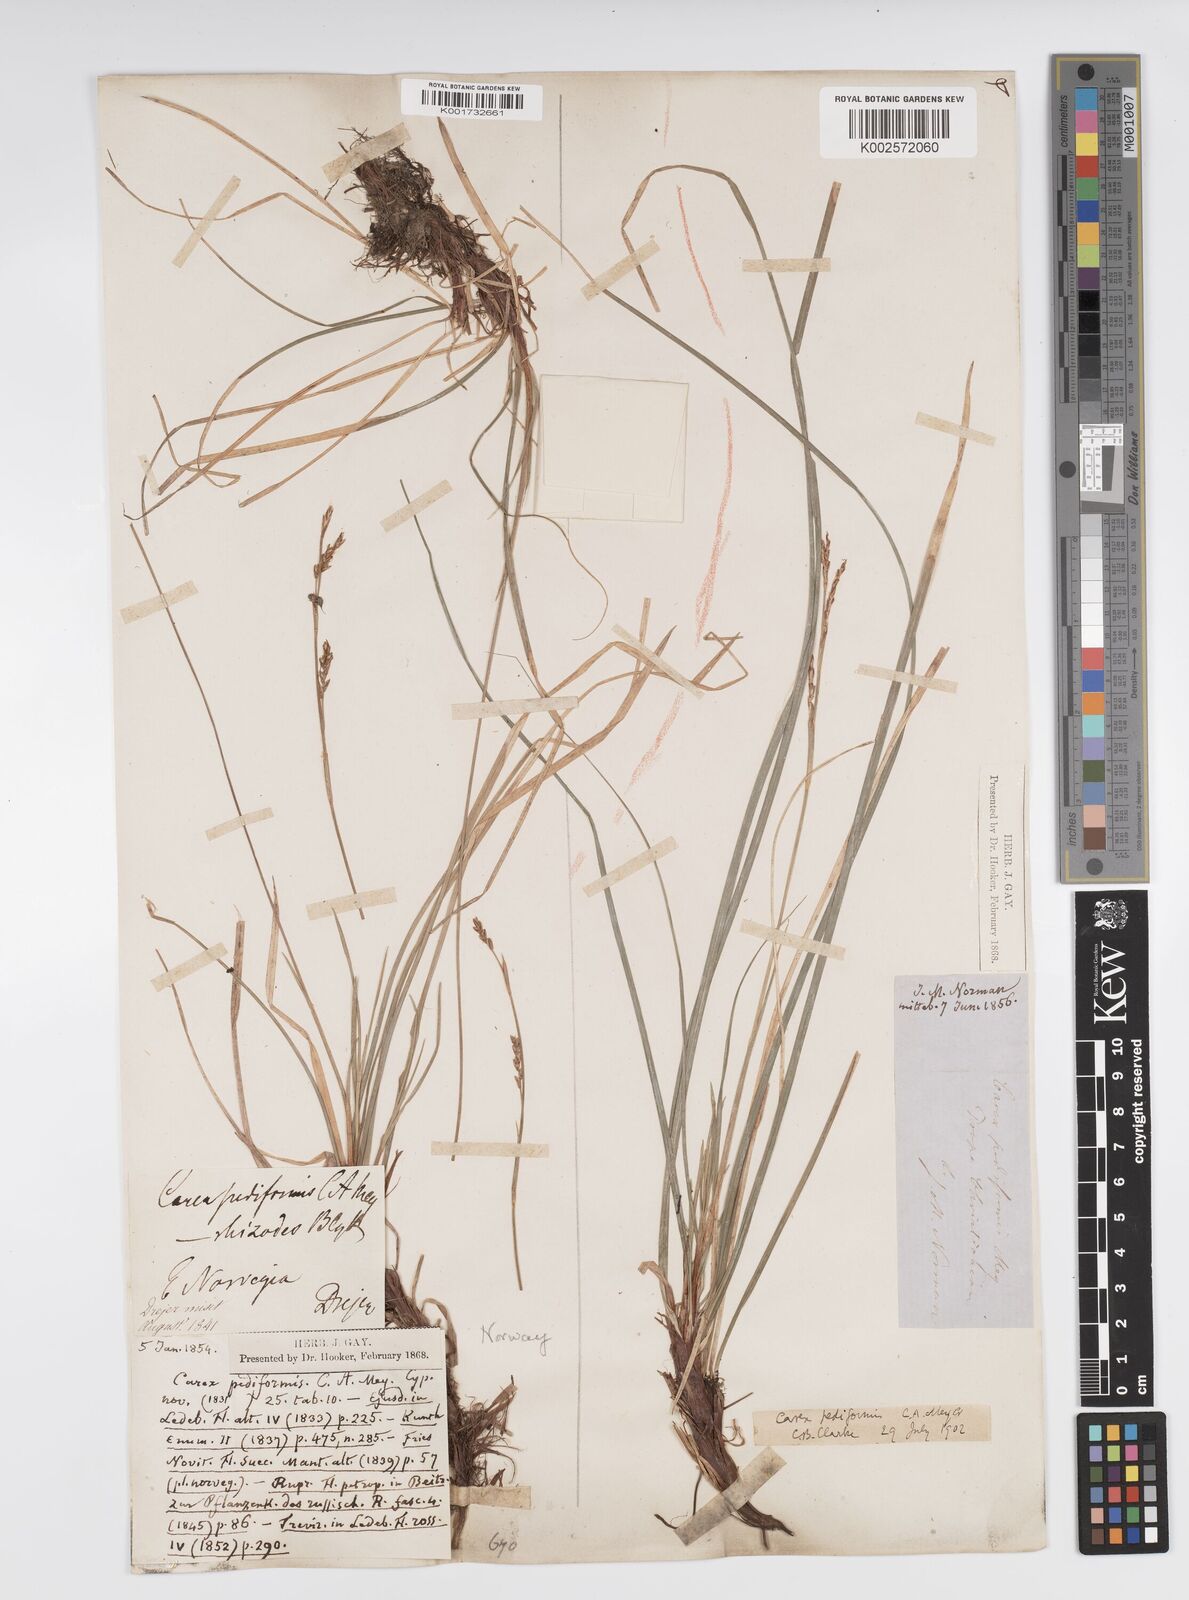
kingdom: Plantae
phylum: Tracheophyta
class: Liliopsida
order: Poales
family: Cyperaceae
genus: Carex
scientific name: Carex pediformis
